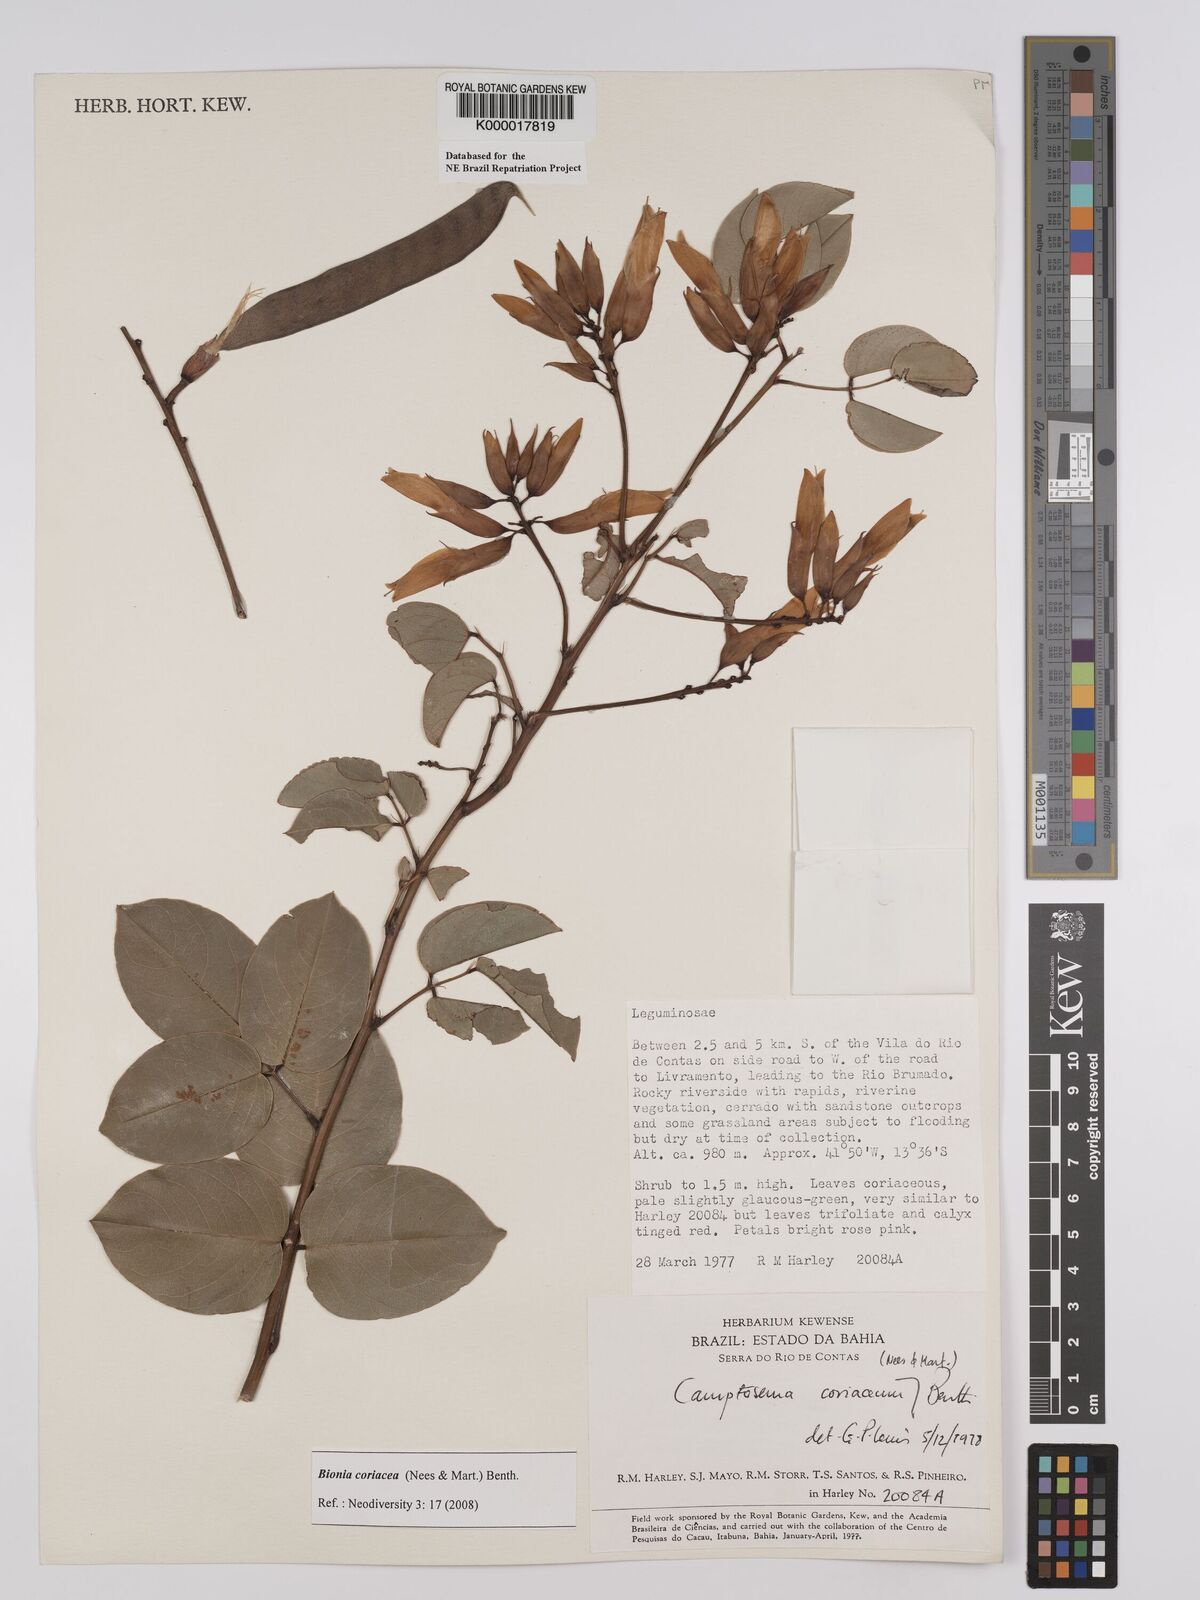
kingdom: Plantae
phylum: Tracheophyta
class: Magnoliopsida
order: Fabales
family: Fabaceae
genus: Camptosema
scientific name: Camptosema coriaceum
